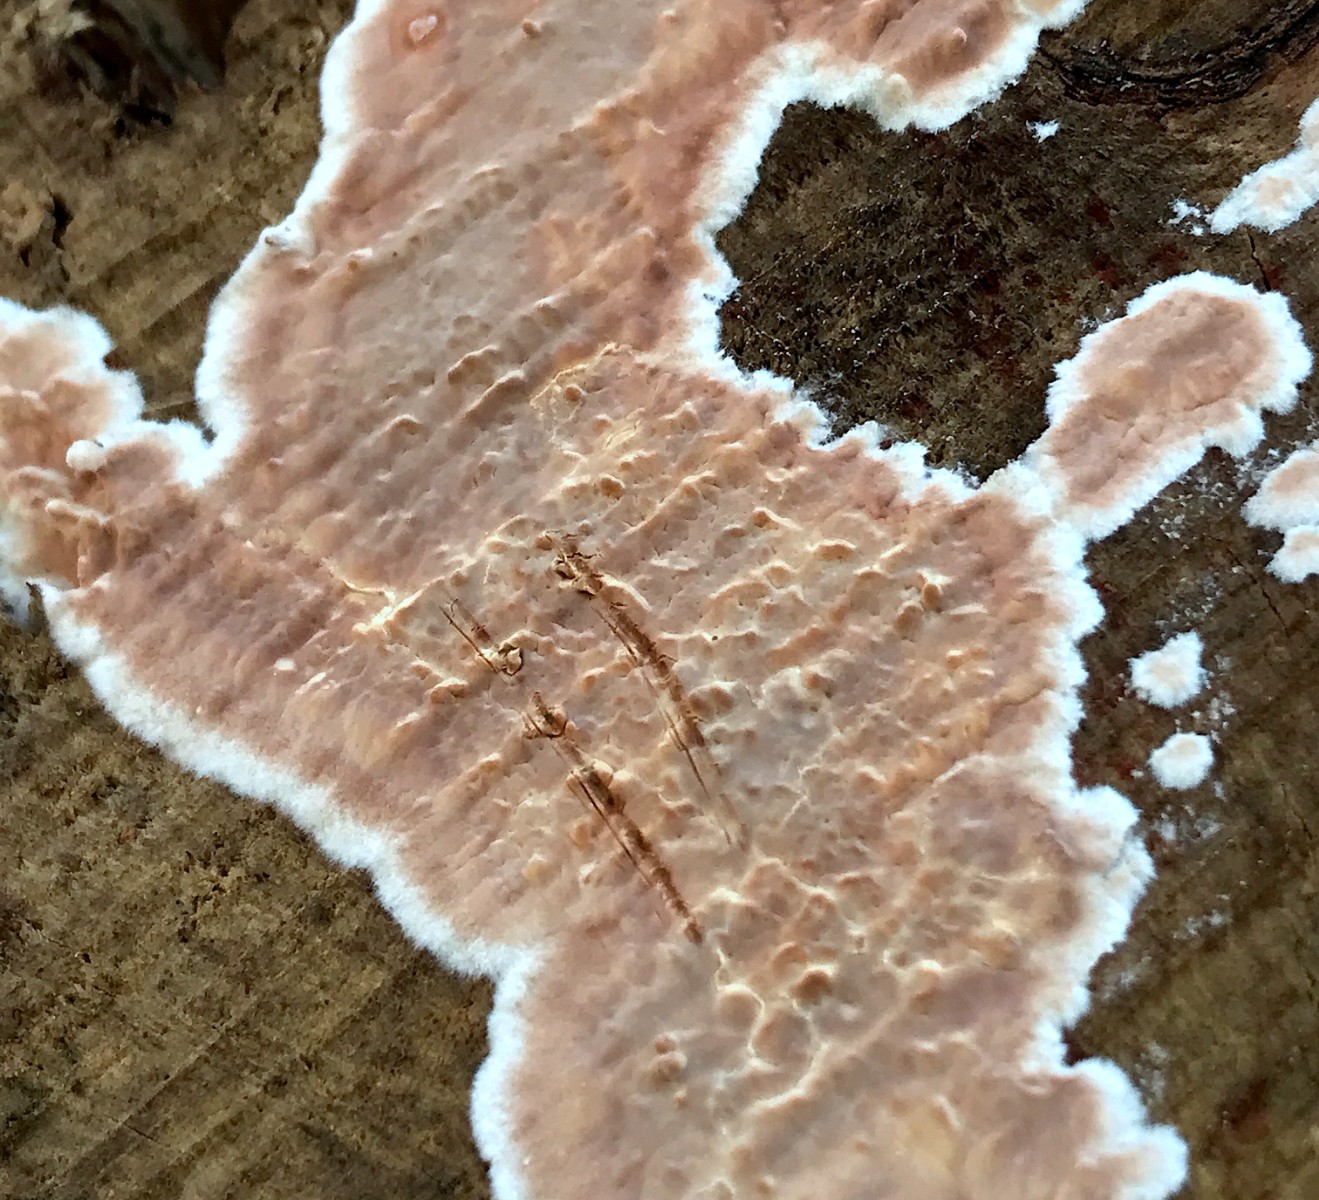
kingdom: Fungi
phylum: Basidiomycota
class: Agaricomycetes
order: Russulales
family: Stereaceae
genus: Stereum
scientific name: Stereum rugosum
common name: rynket lædersvamp
